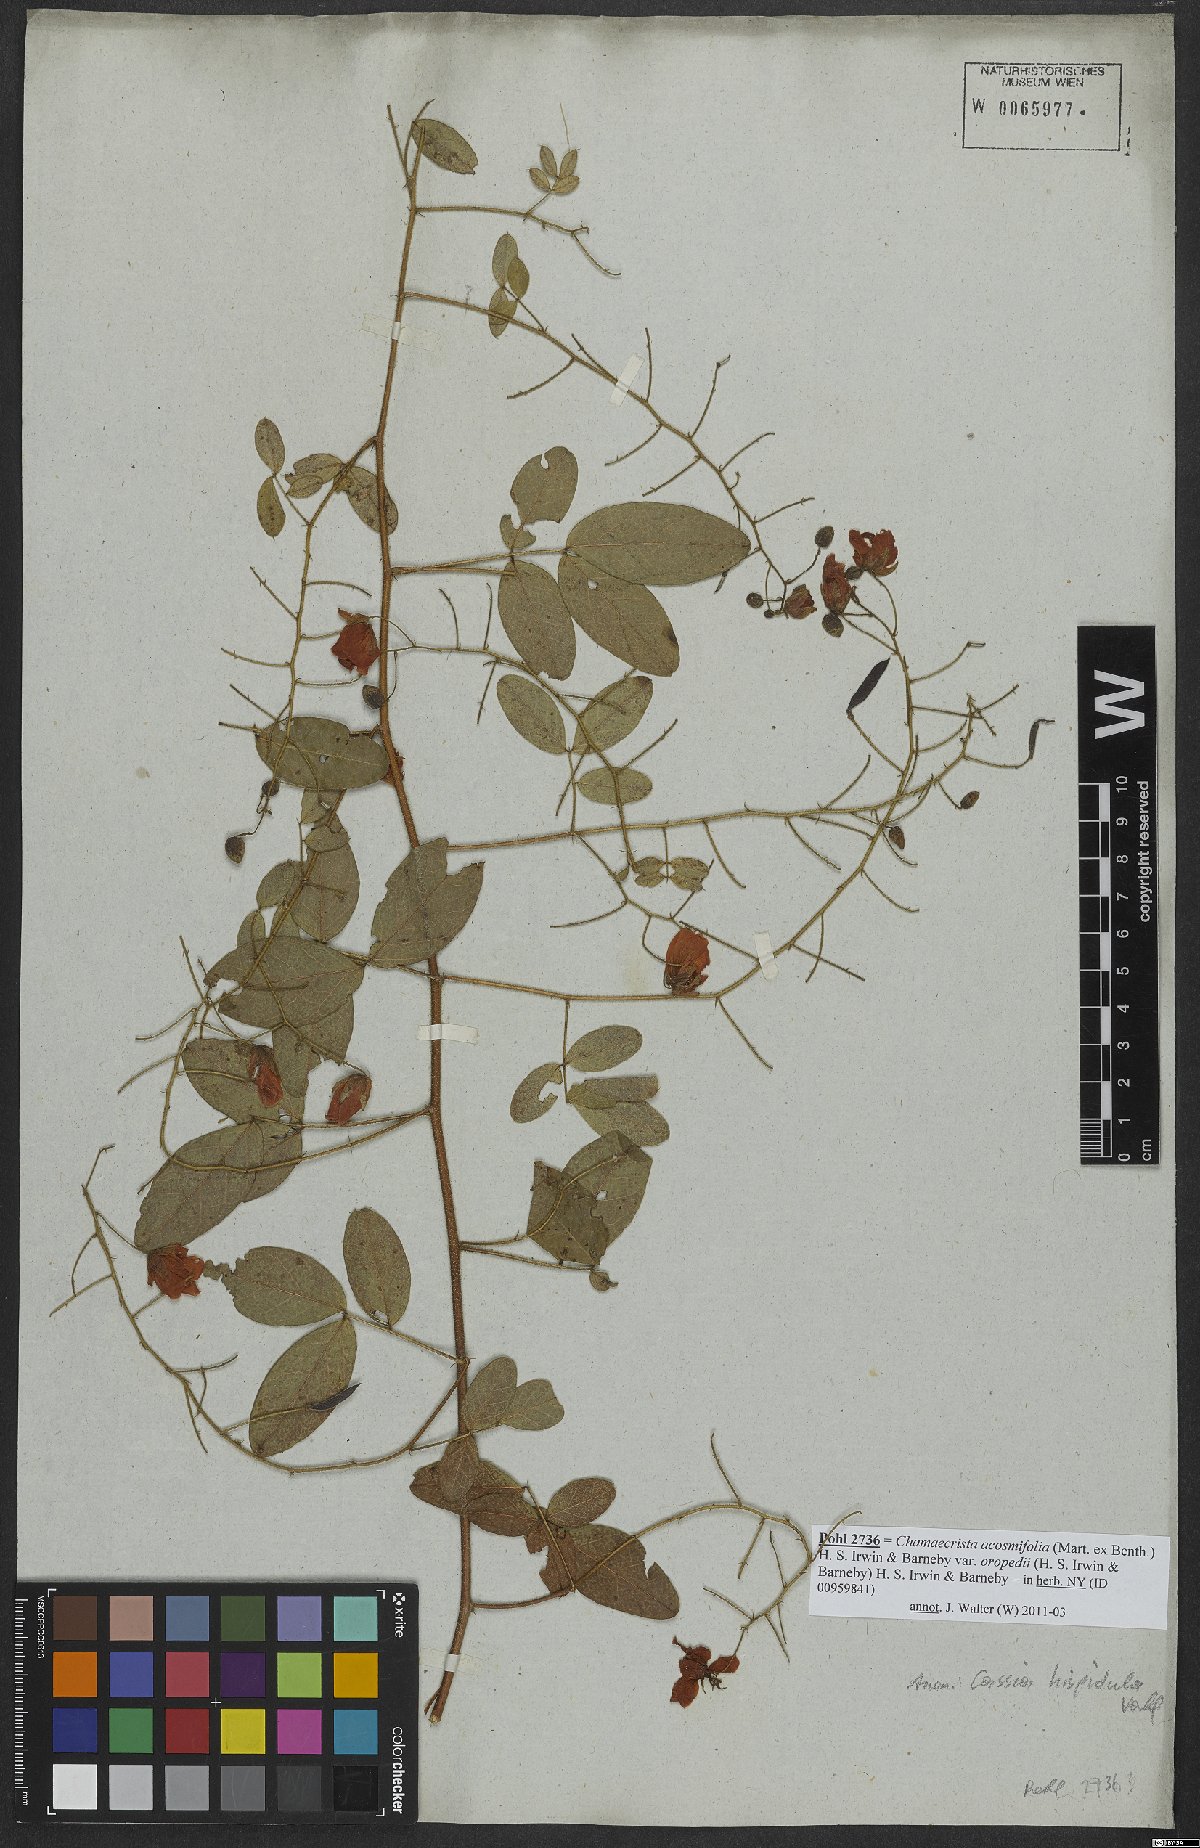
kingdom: Plantae
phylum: Tracheophyta
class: Magnoliopsida
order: Fabales
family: Fabaceae
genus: Chamaecrista
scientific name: Chamaecrista hispidula
